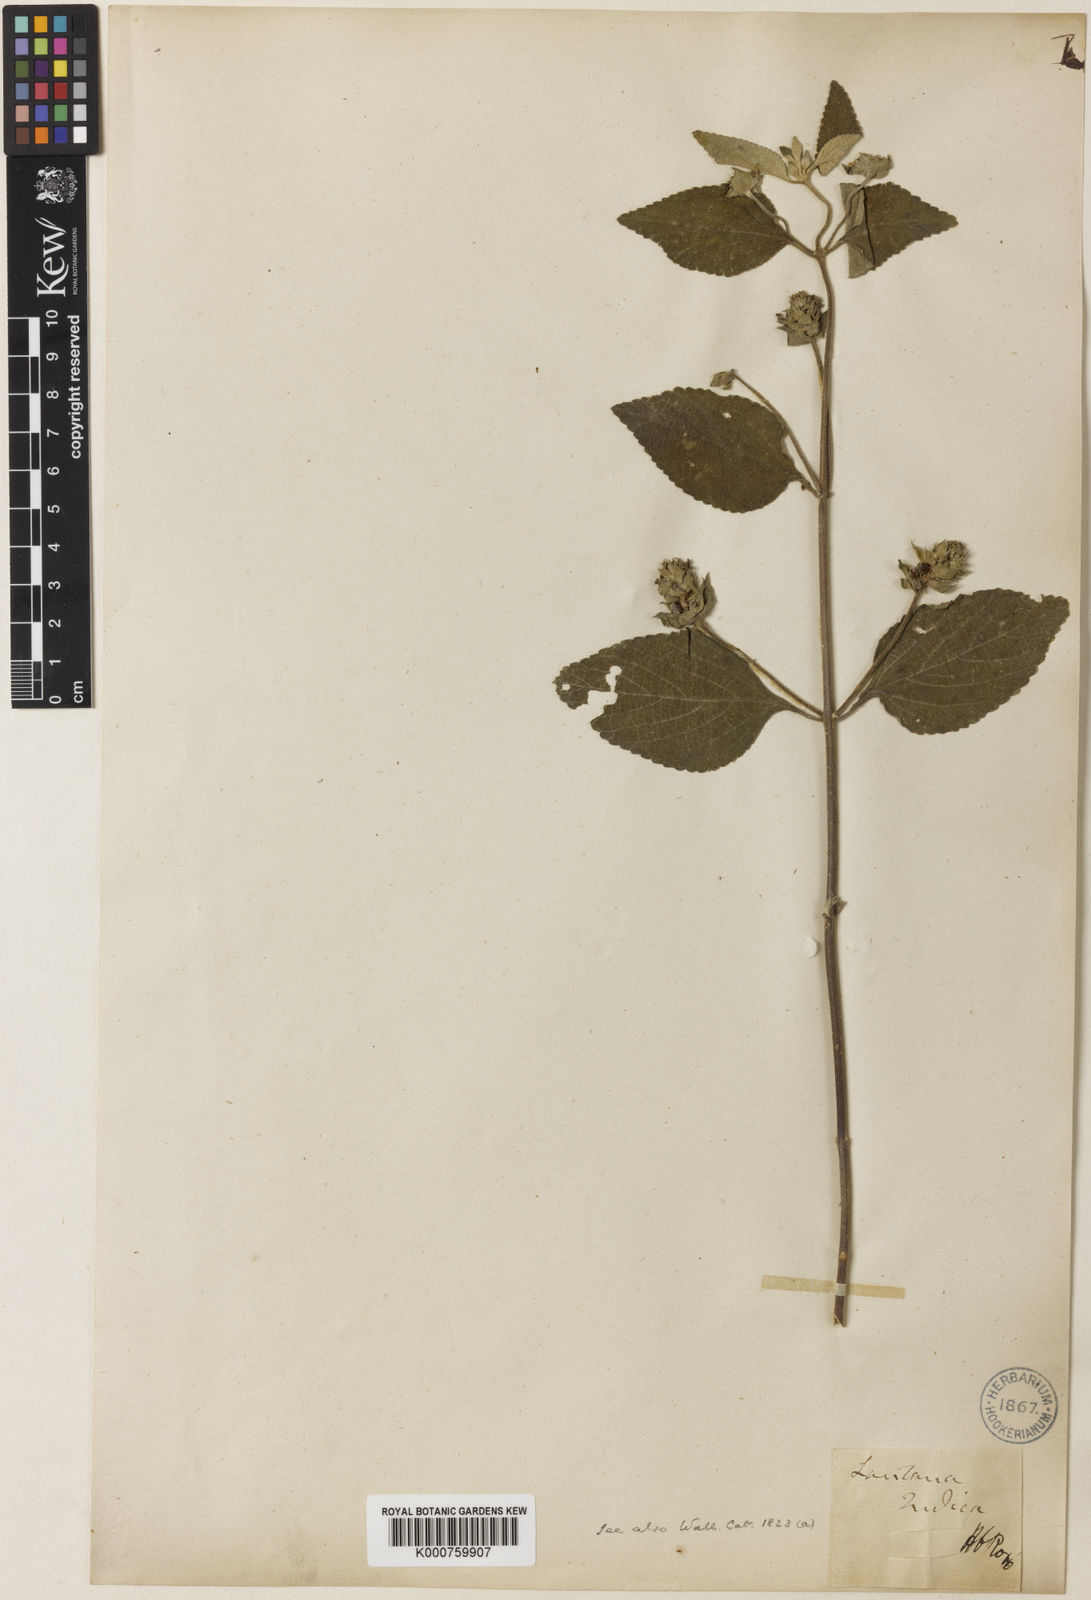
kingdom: Plantae
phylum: Tracheophyta
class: Magnoliopsida
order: Lamiales
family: Verbenaceae
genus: Lantana
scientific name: Lantana indica
